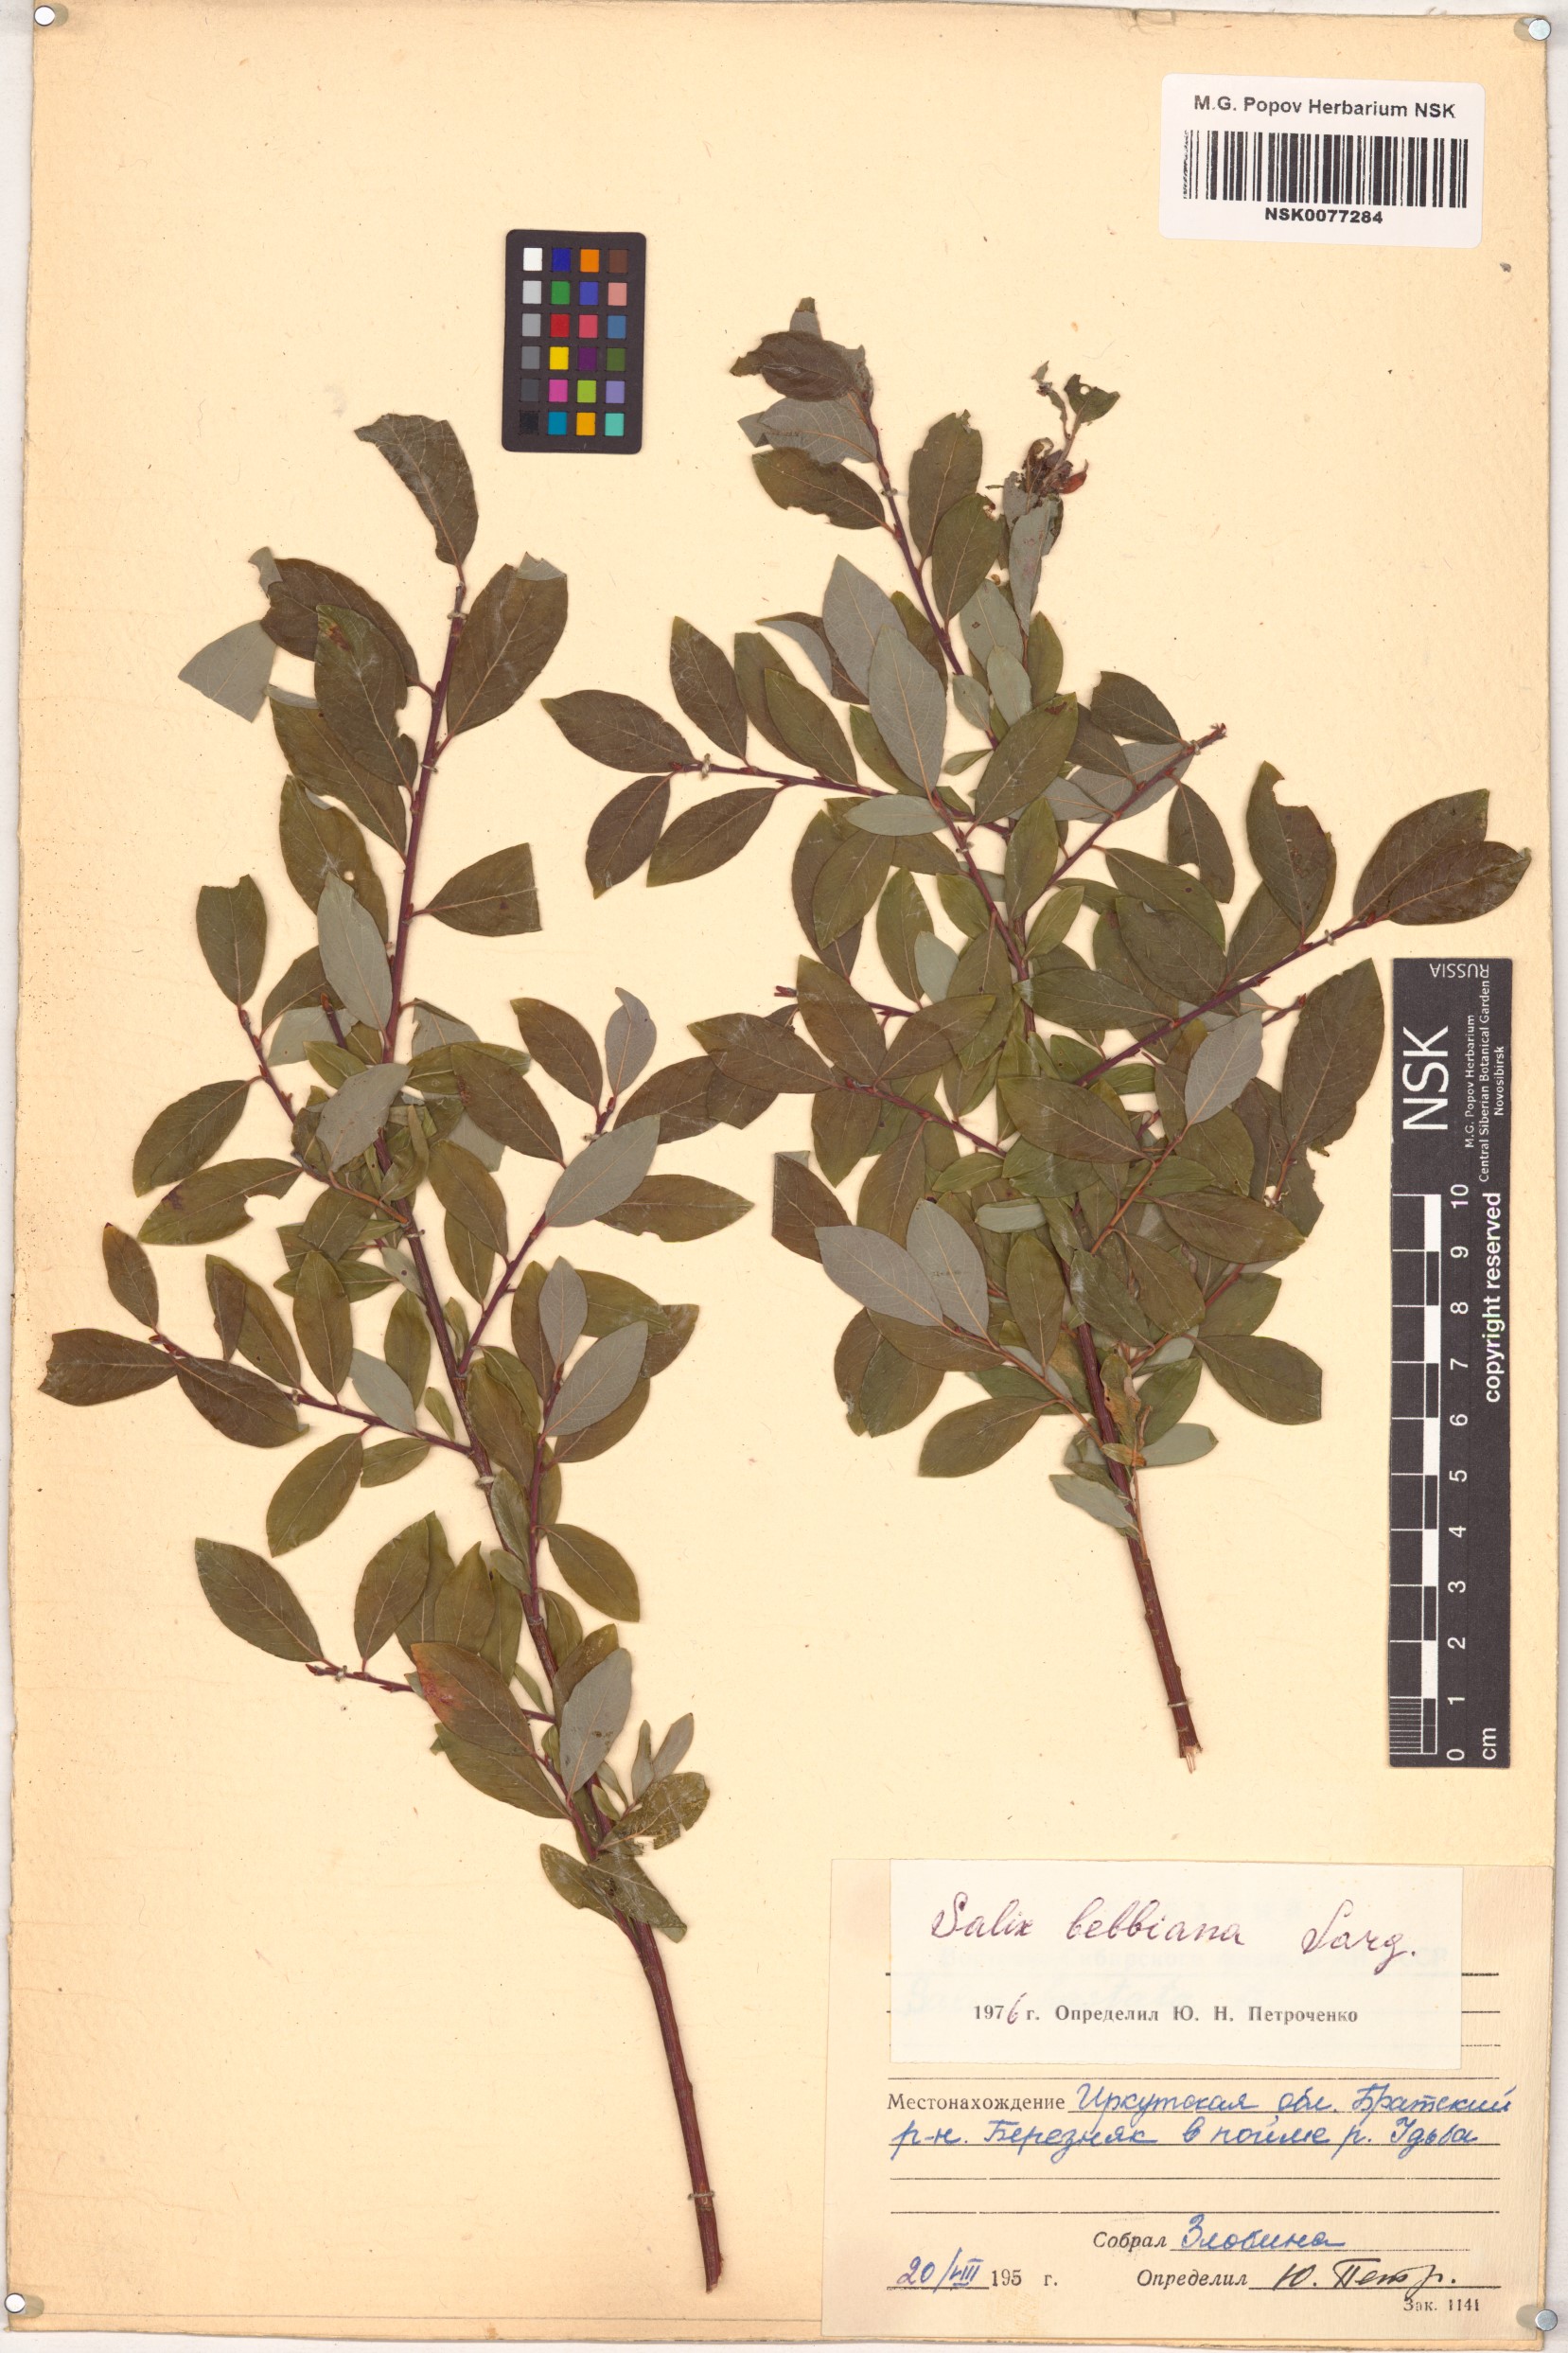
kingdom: Plantae
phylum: Tracheophyta
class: Magnoliopsida
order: Malpighiales
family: Salicaceae
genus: Salix
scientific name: Salix bebbiana
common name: Bebb's willow
